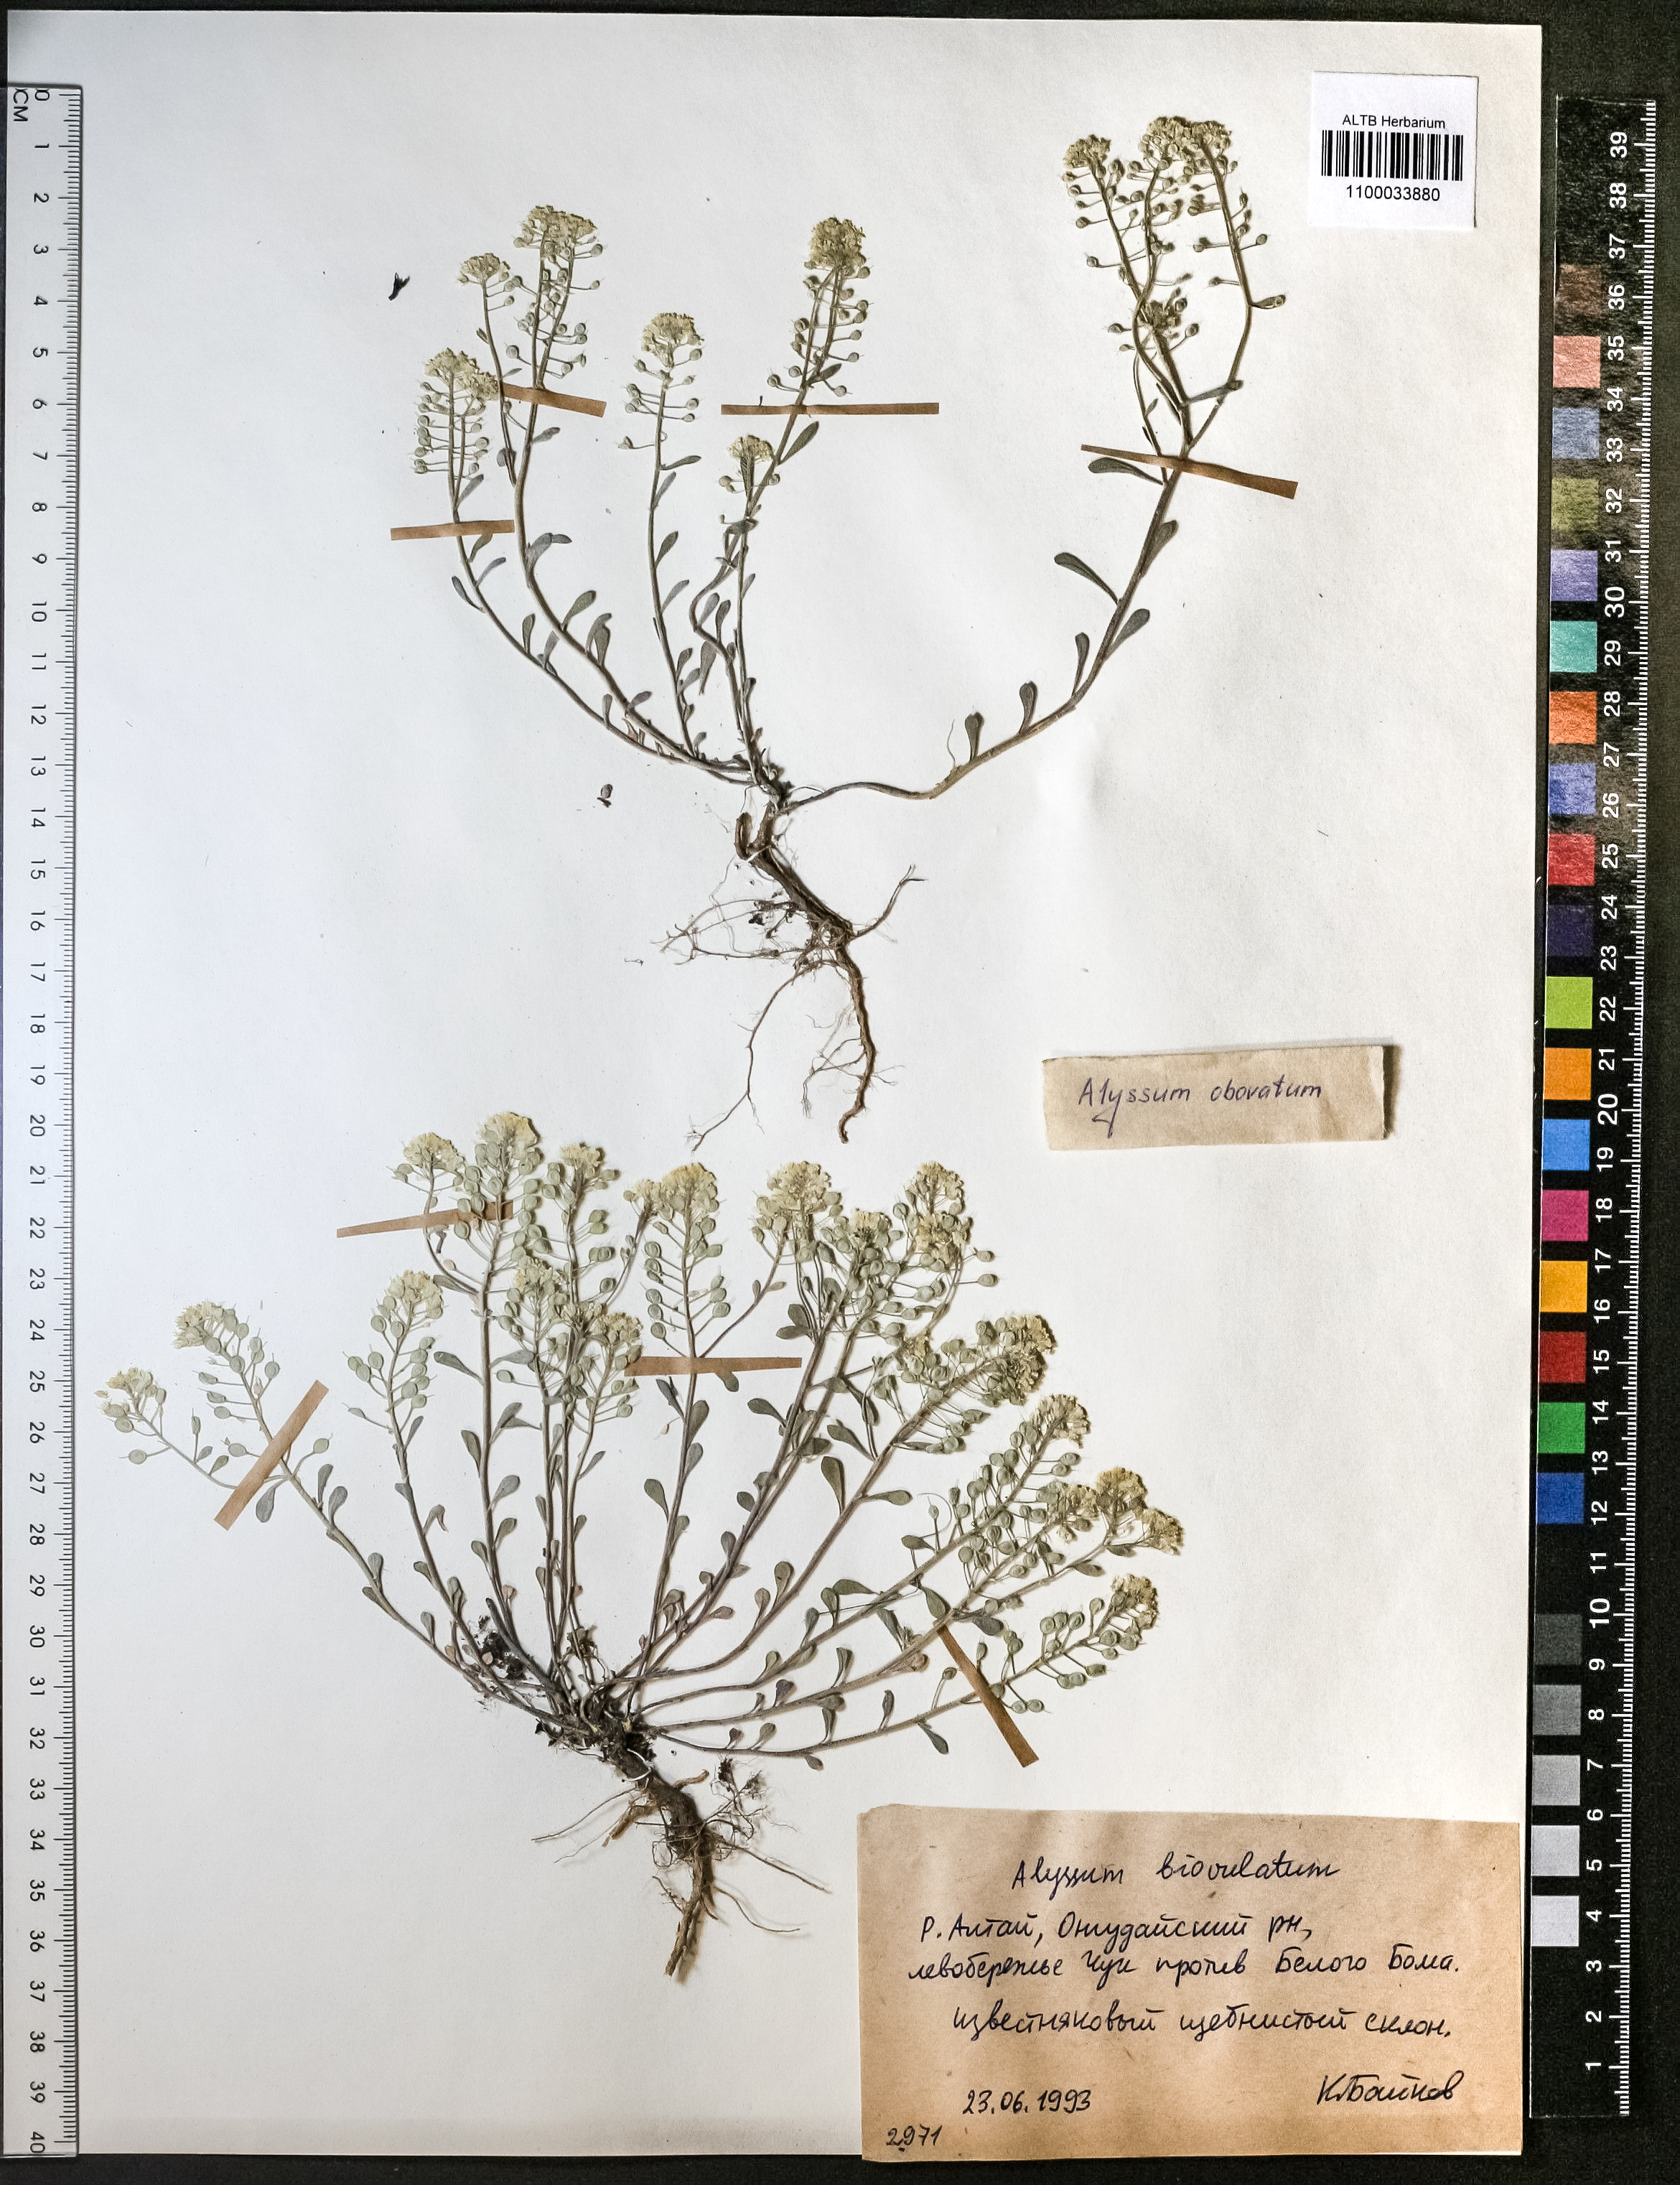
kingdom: Plantae
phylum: Tracheophyta
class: Magnoliopsida
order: Brassicales
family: Brassicaceae
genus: Odontarrhena
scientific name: Odontarrhena obovata
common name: American alyssum
